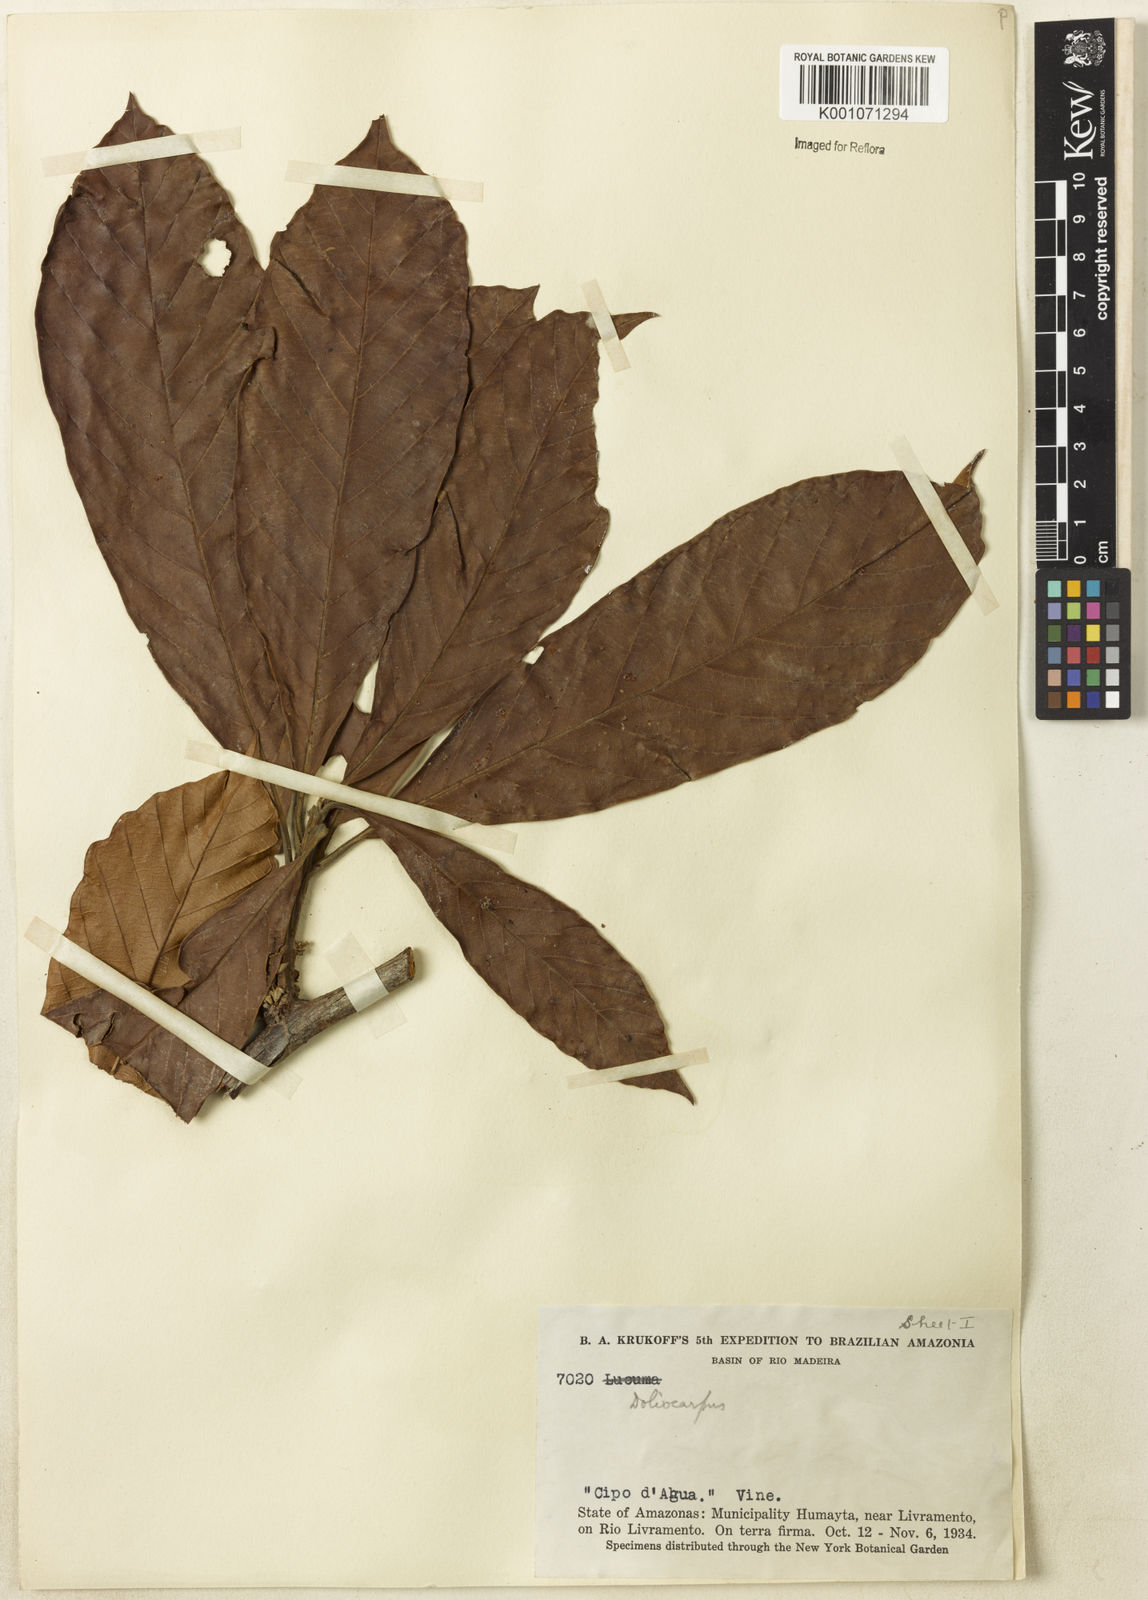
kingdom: Plantae
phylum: Tracheophyta
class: Magnoliopsida
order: Dilleniales
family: Dilleniaceae
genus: Doliocarpus
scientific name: Doliocarpus
